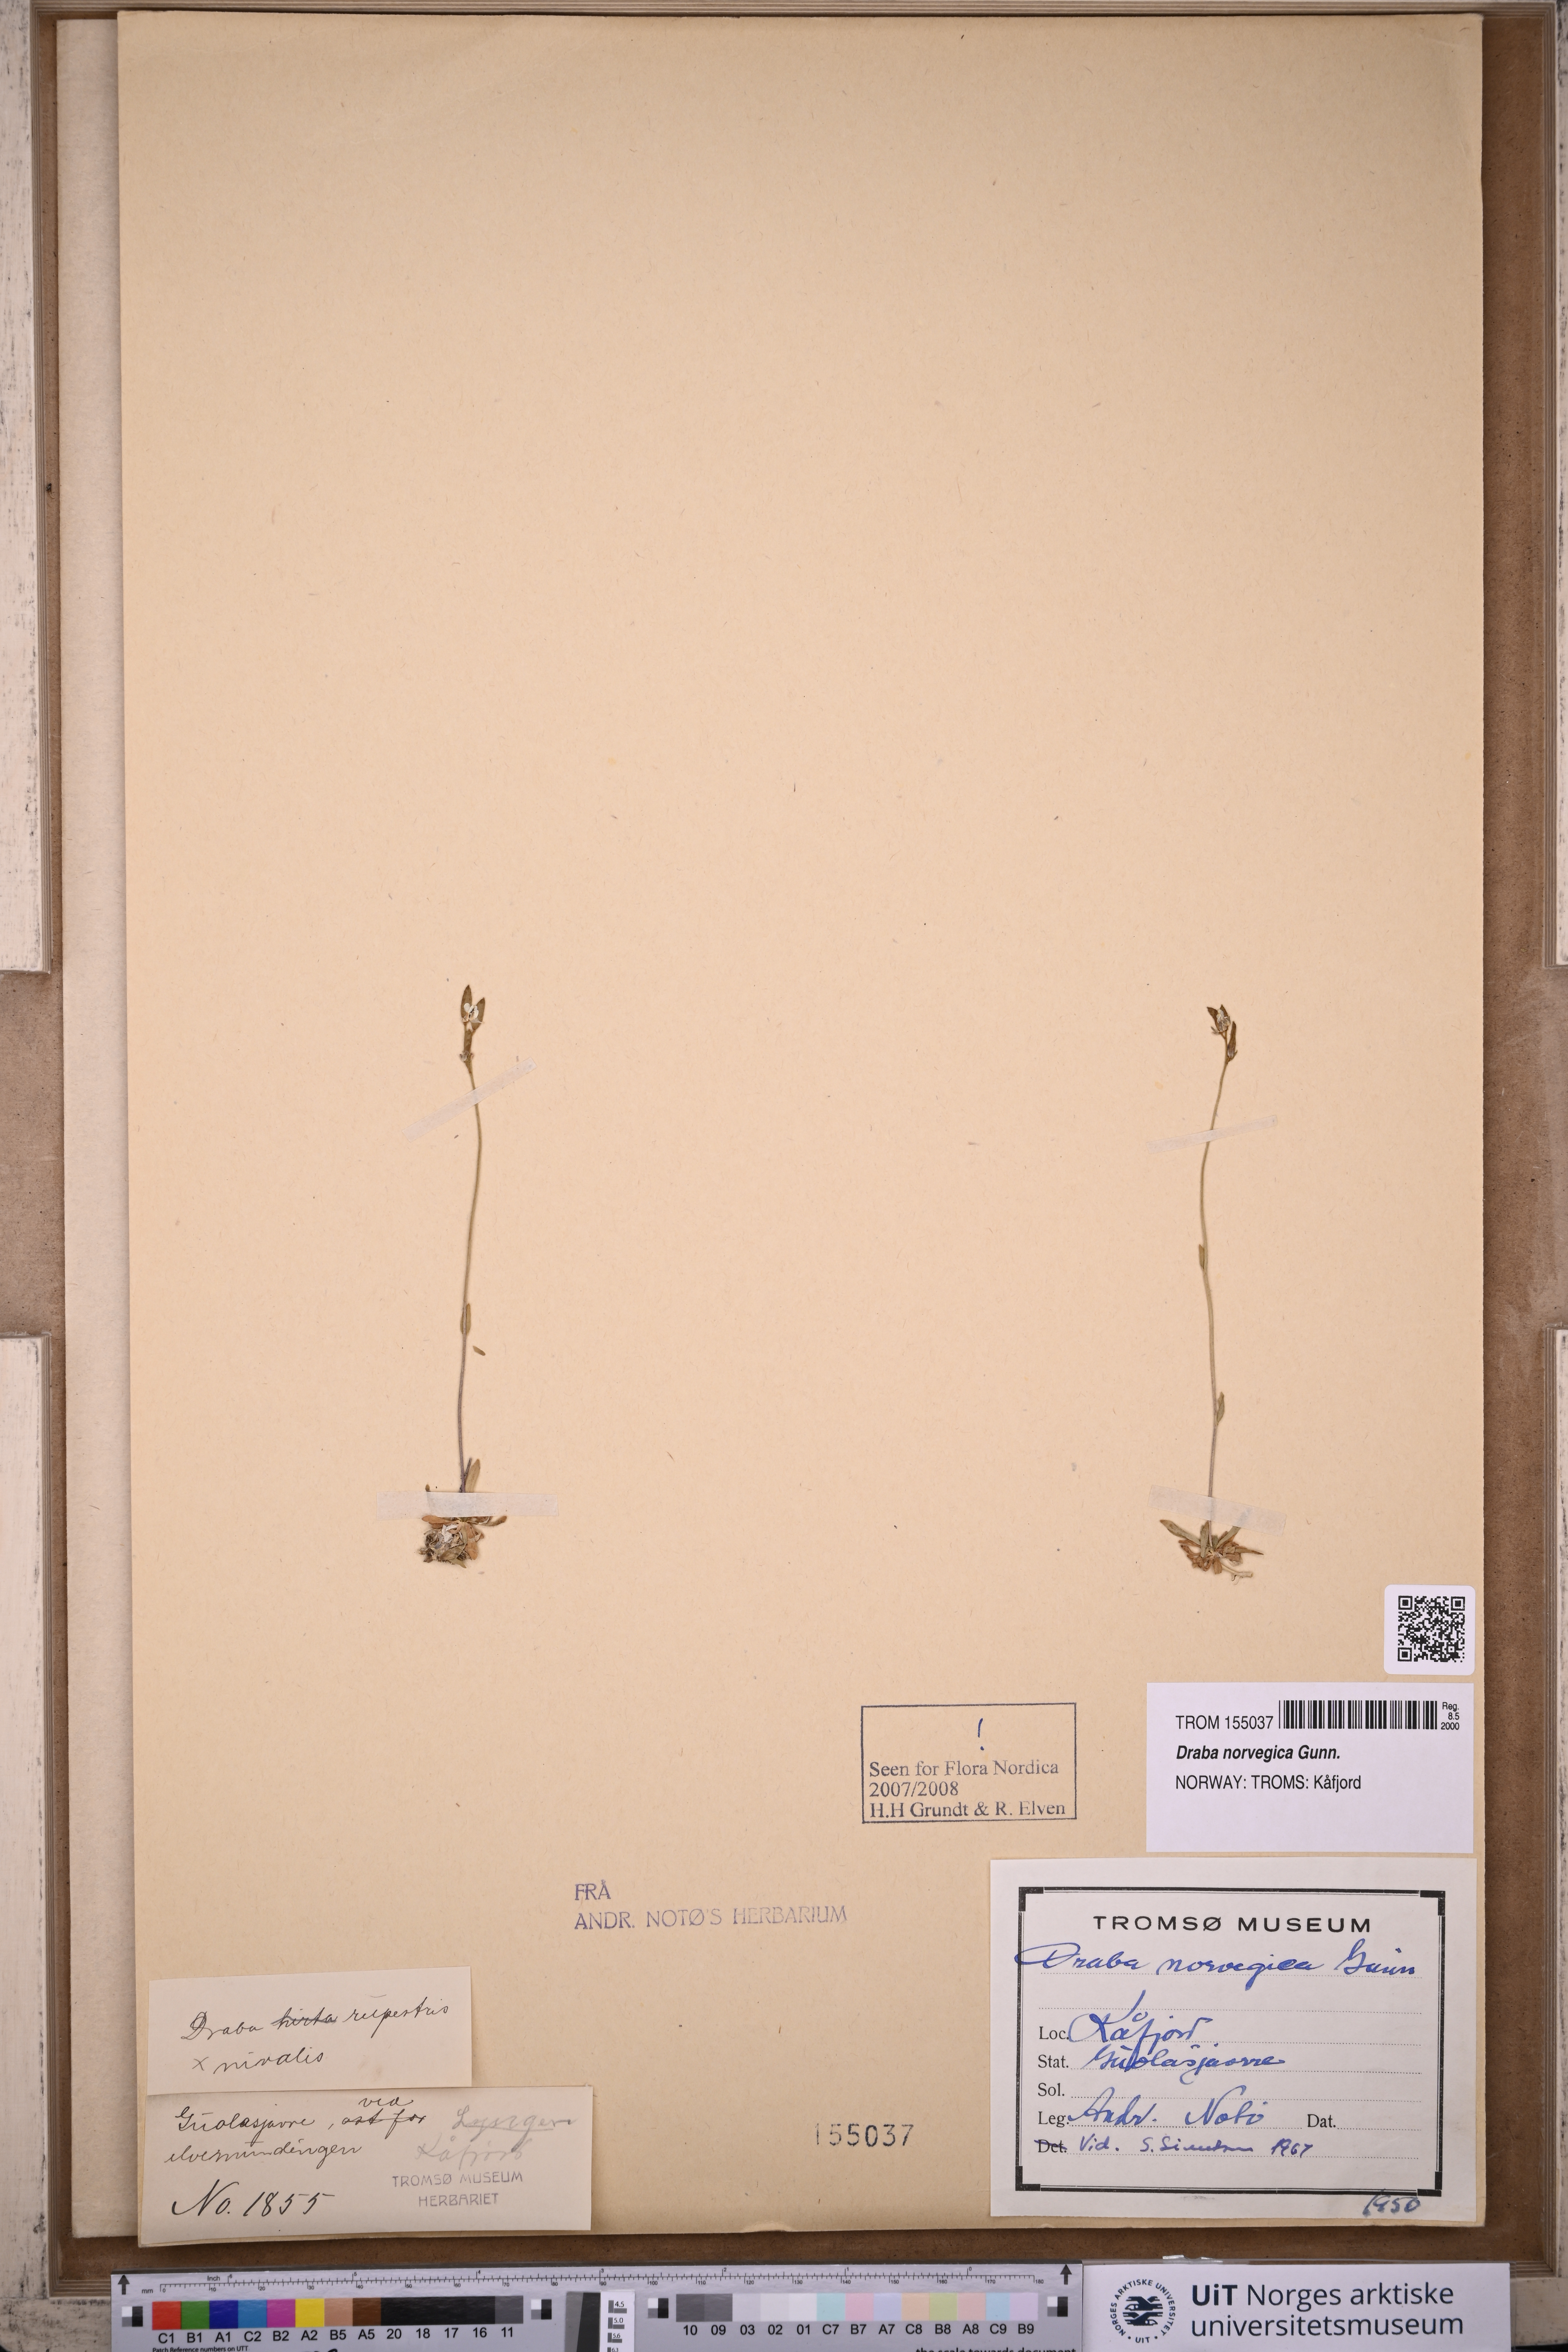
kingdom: Plantae
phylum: Tracheophyta
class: Magnoliopsida
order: Brassicales
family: Brassicaceae
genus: Draba
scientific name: Draba norvegica
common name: Rock whitlowgrass
